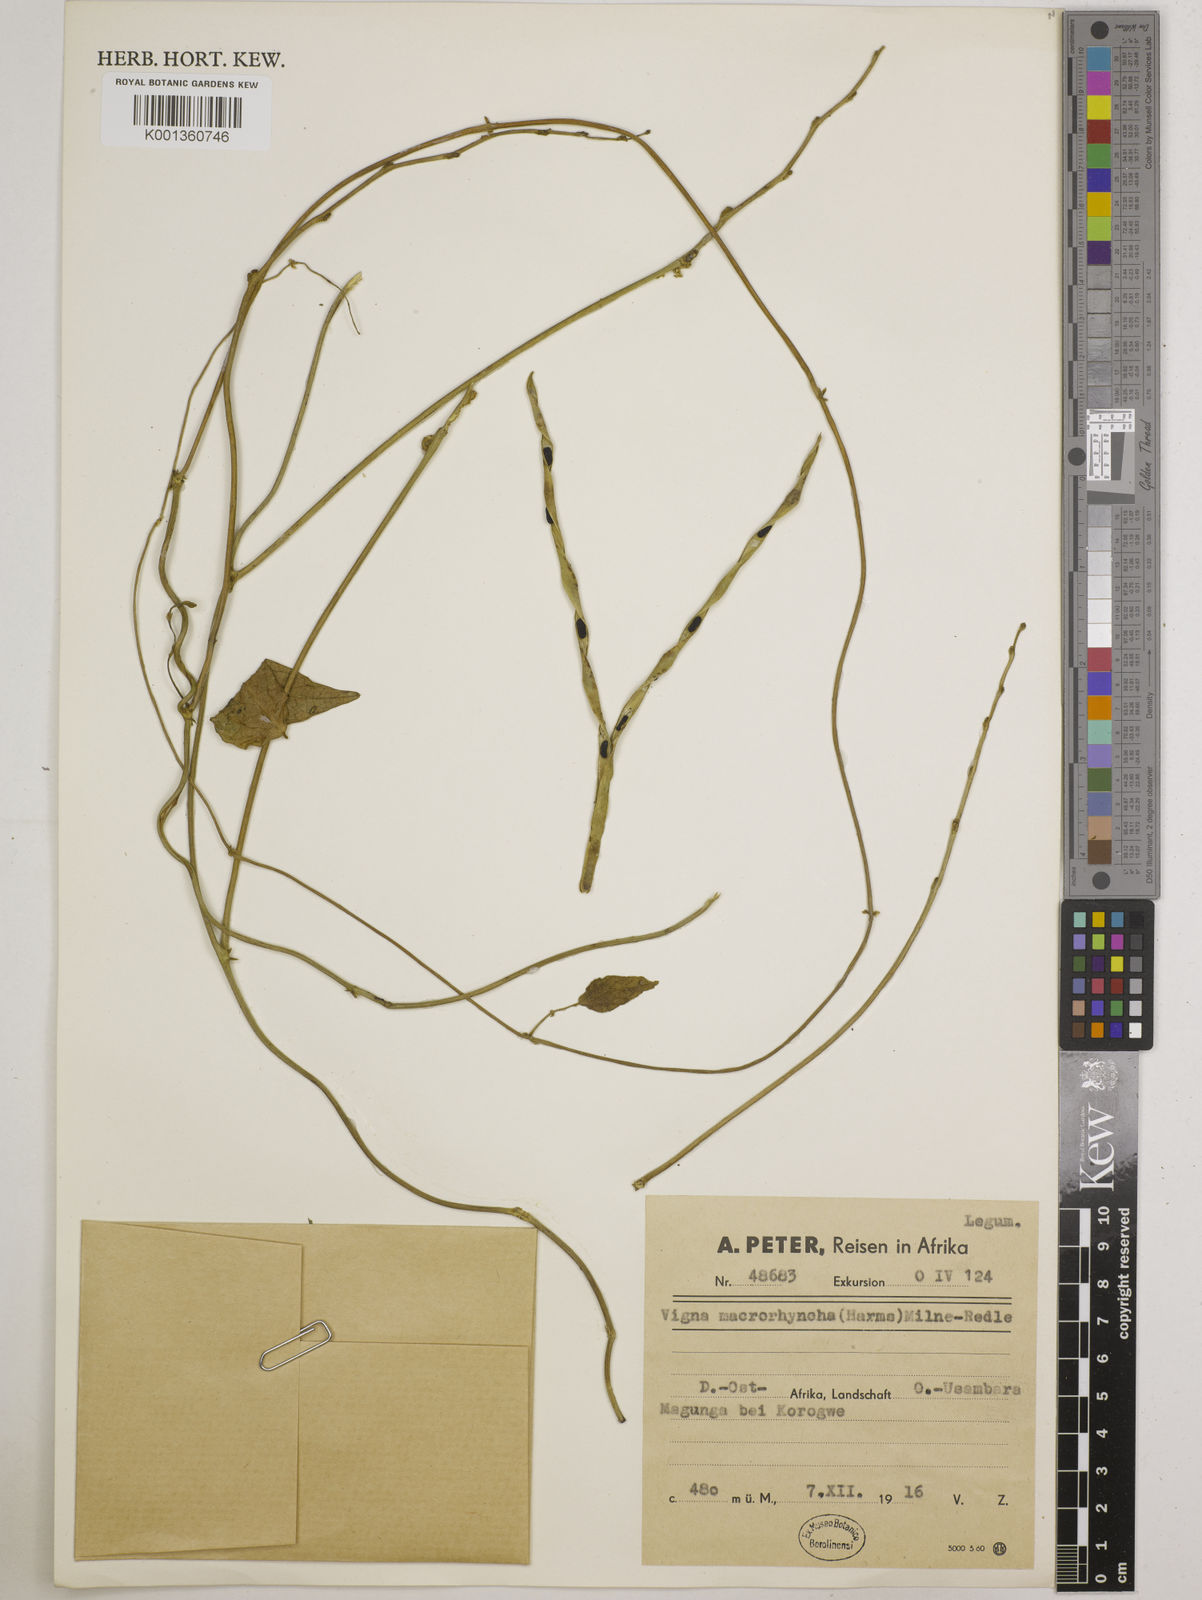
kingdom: Plantae
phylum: Tracheophyta
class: Magnoliopsida
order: Fabales
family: Fabaceae
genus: Wajira
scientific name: Wajira grahamiana
